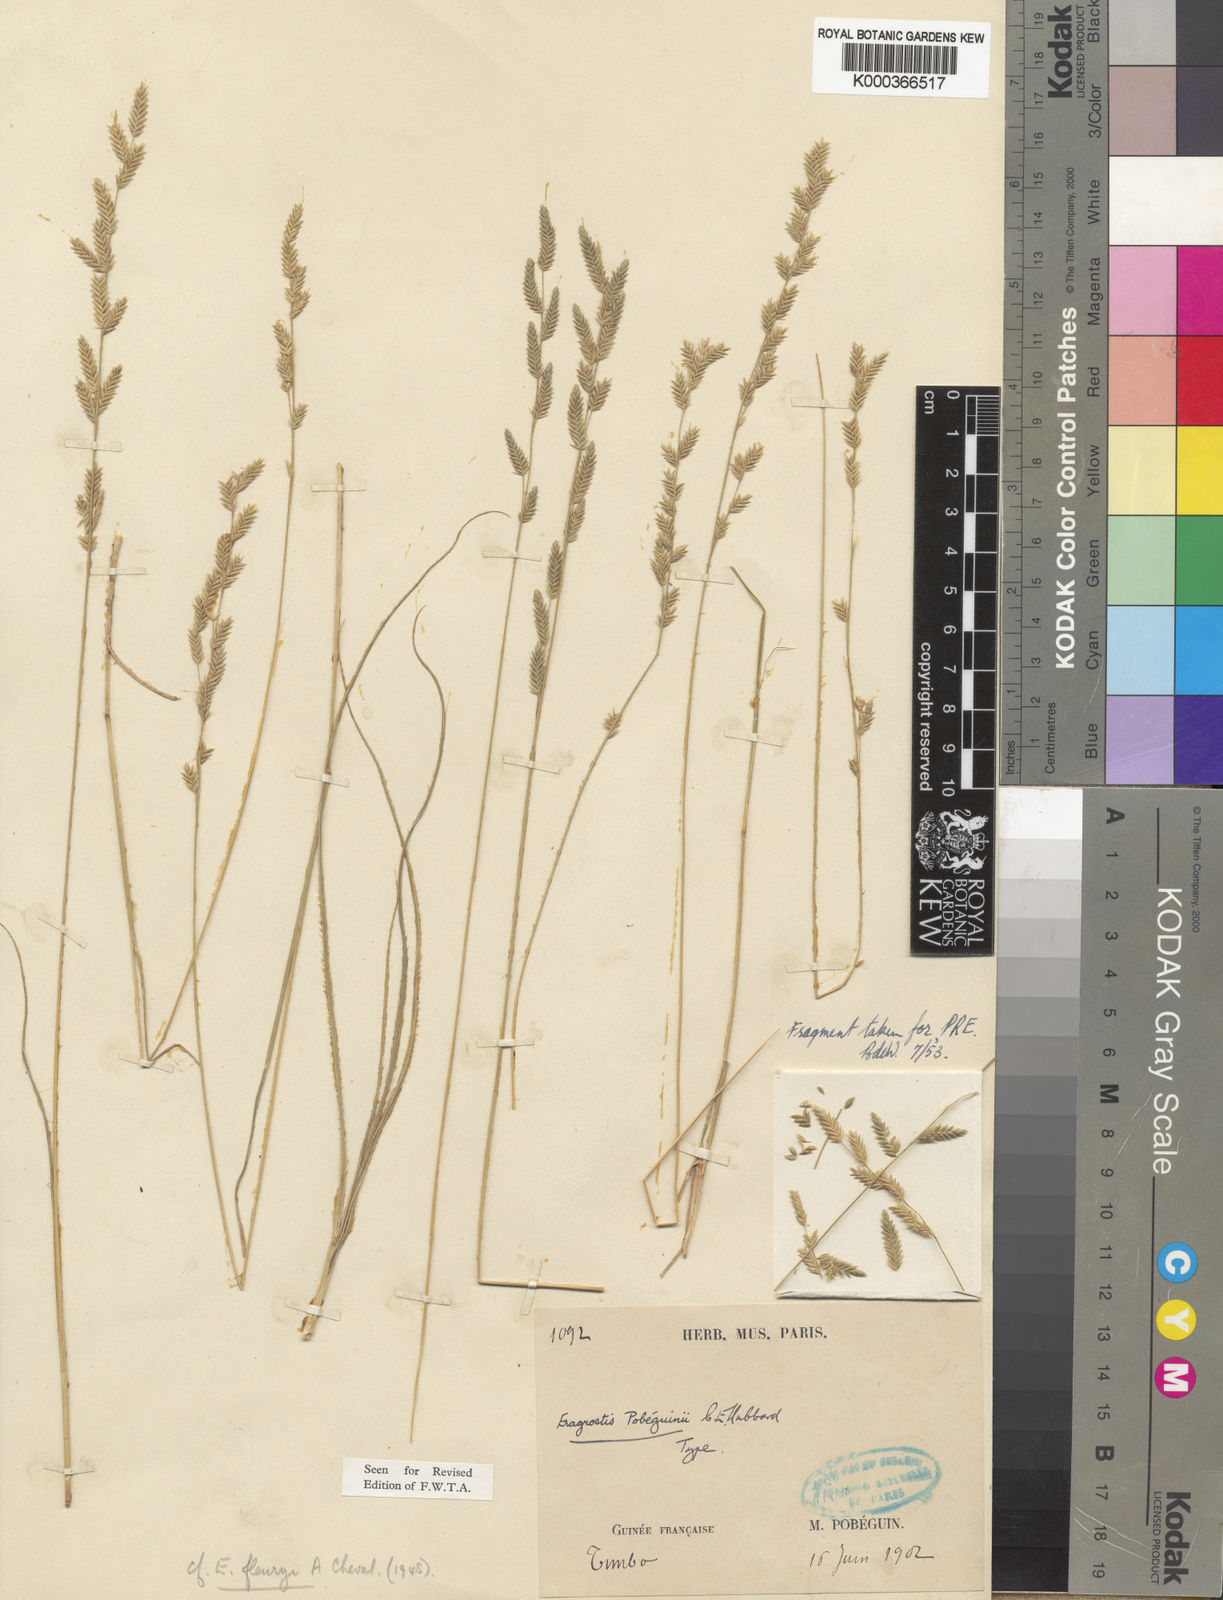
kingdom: Plantae
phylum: Tracheophyta
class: Liliopsida
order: Poales
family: Poaceae
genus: Eragrostis
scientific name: Eragrostis pobeguinii
